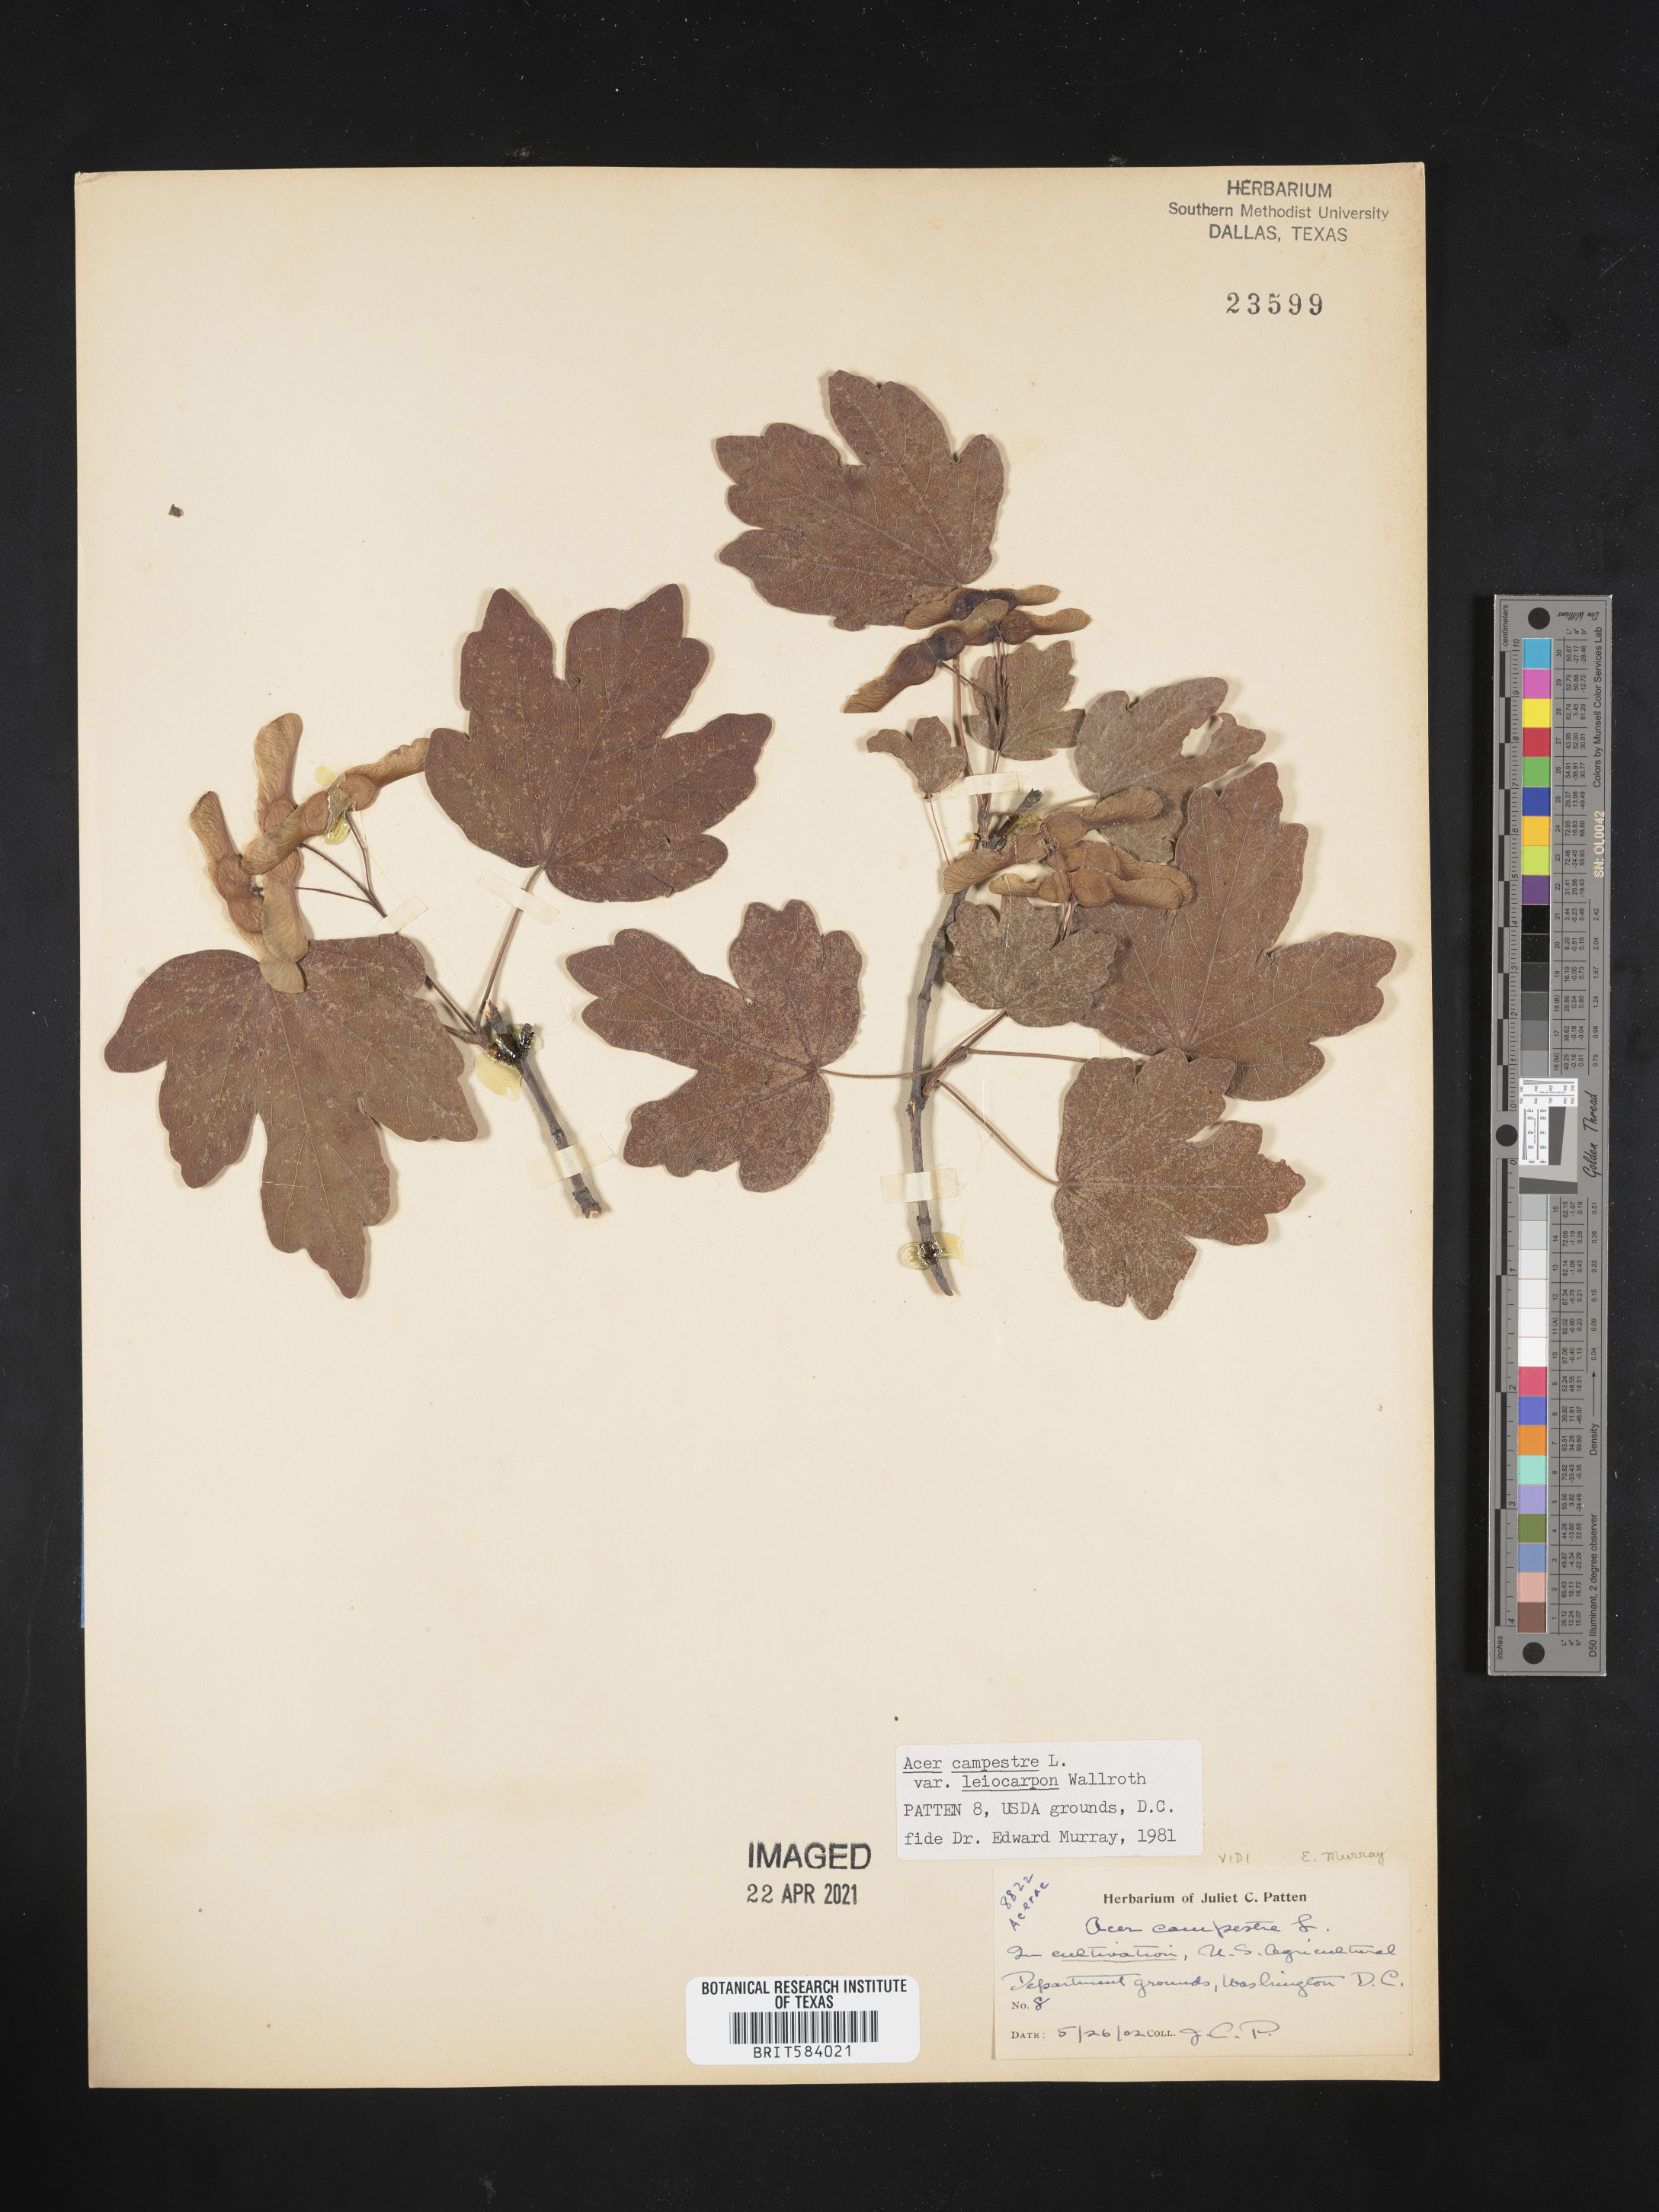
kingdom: Plantae
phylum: Tracheophyta
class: Magnoliopsida
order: Sapindales
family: Sapindaceae
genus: Acer
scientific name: Acer campestre
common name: Field maple
